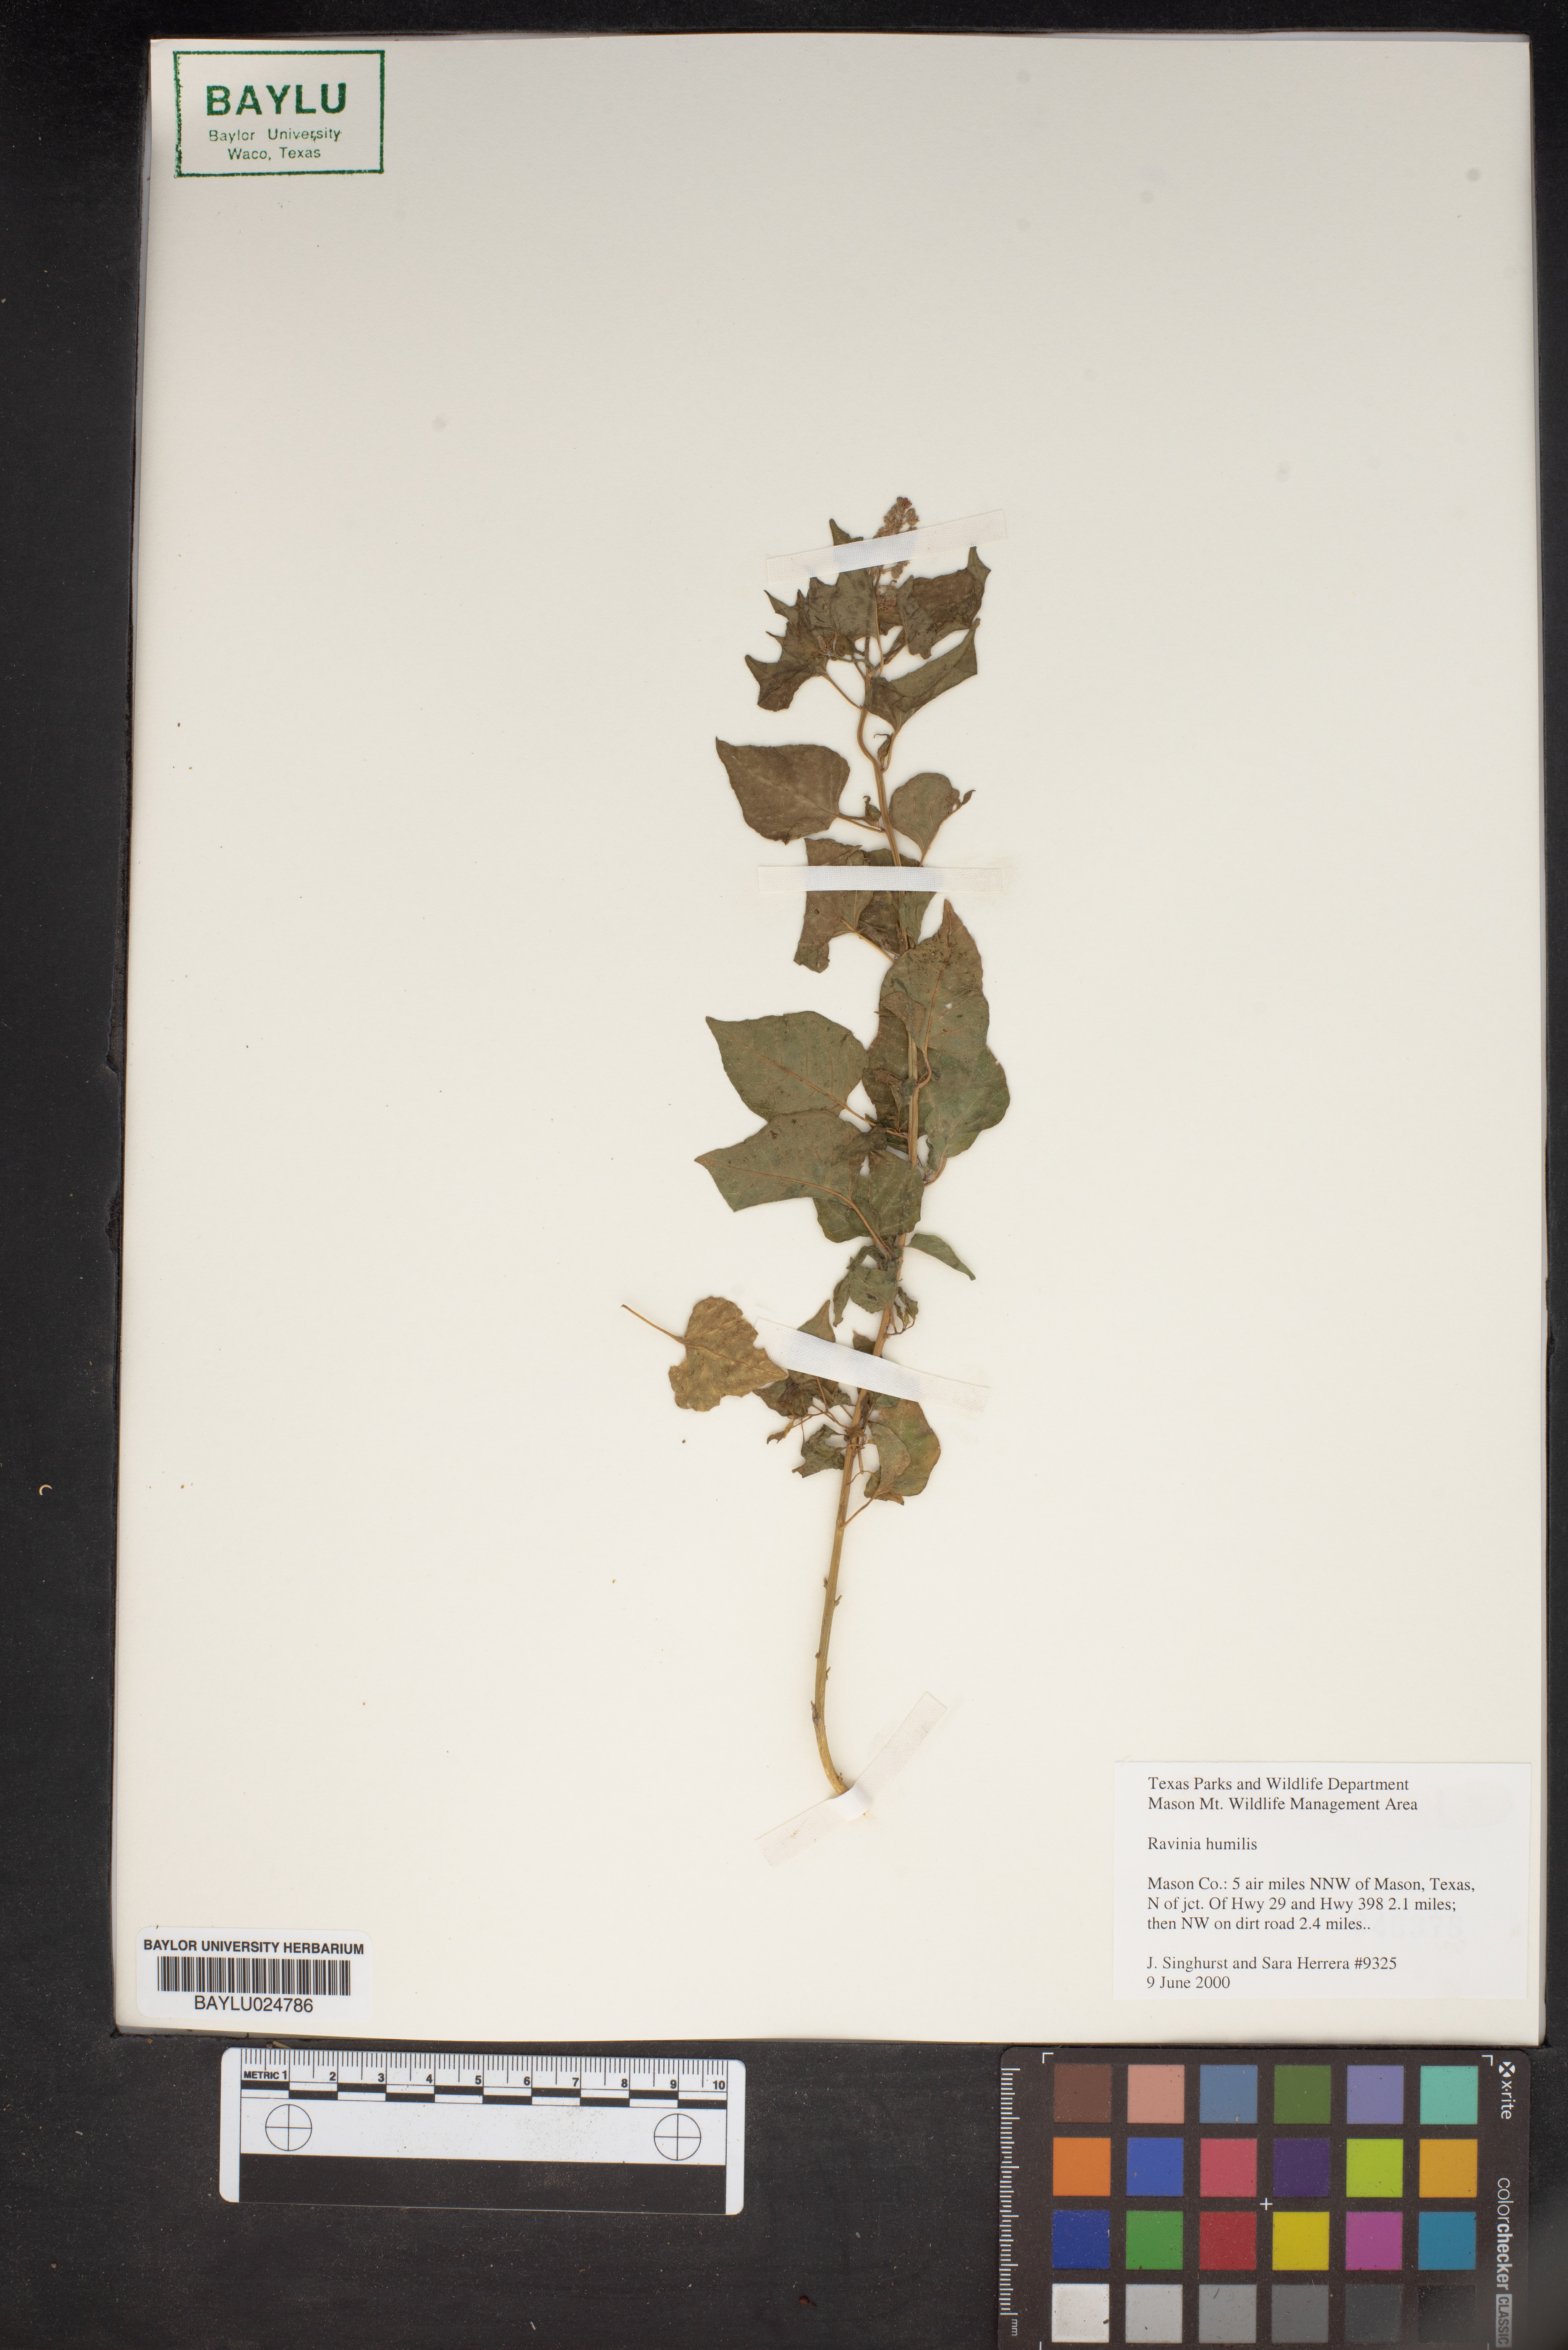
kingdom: Plantae
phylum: Tracheophyta
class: Magnoliopsida
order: Caryophyllales
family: Phytolaccaceae
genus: Rivina
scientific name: Rivina humilis
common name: Rougeplant
